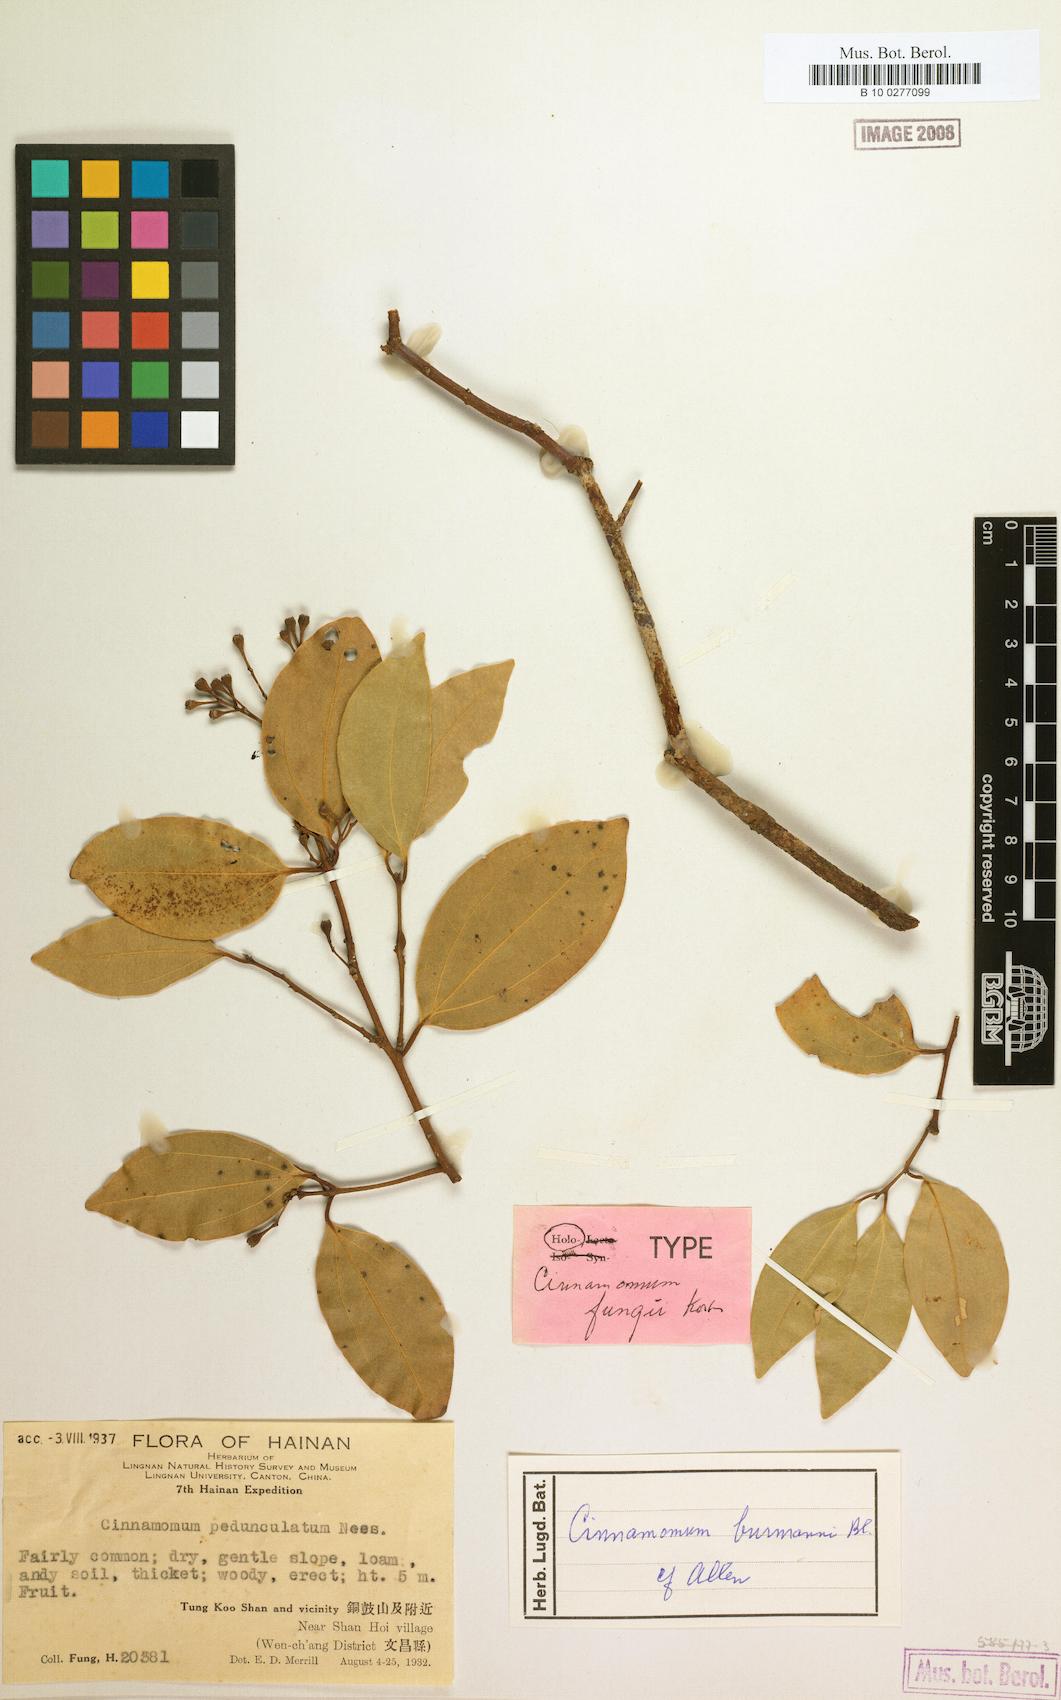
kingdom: Plantae
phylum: Tracheophyta
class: Magnoliopsida
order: Laurales
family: Lauraceae
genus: Cinnamomum
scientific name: Cinnamomum
